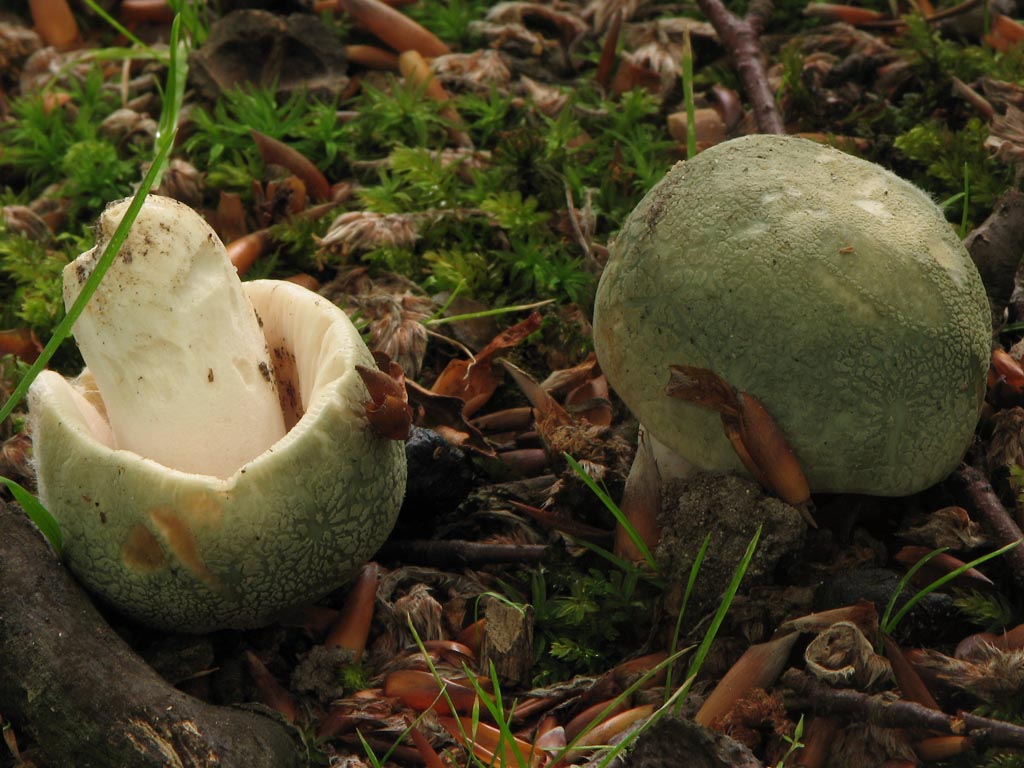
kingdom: Fungi
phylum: Basidiomycota
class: Agaricomycetes
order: Russulales
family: Russulaceae
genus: Russula
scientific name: Russula virescens
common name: spanskgrøn skørhat
